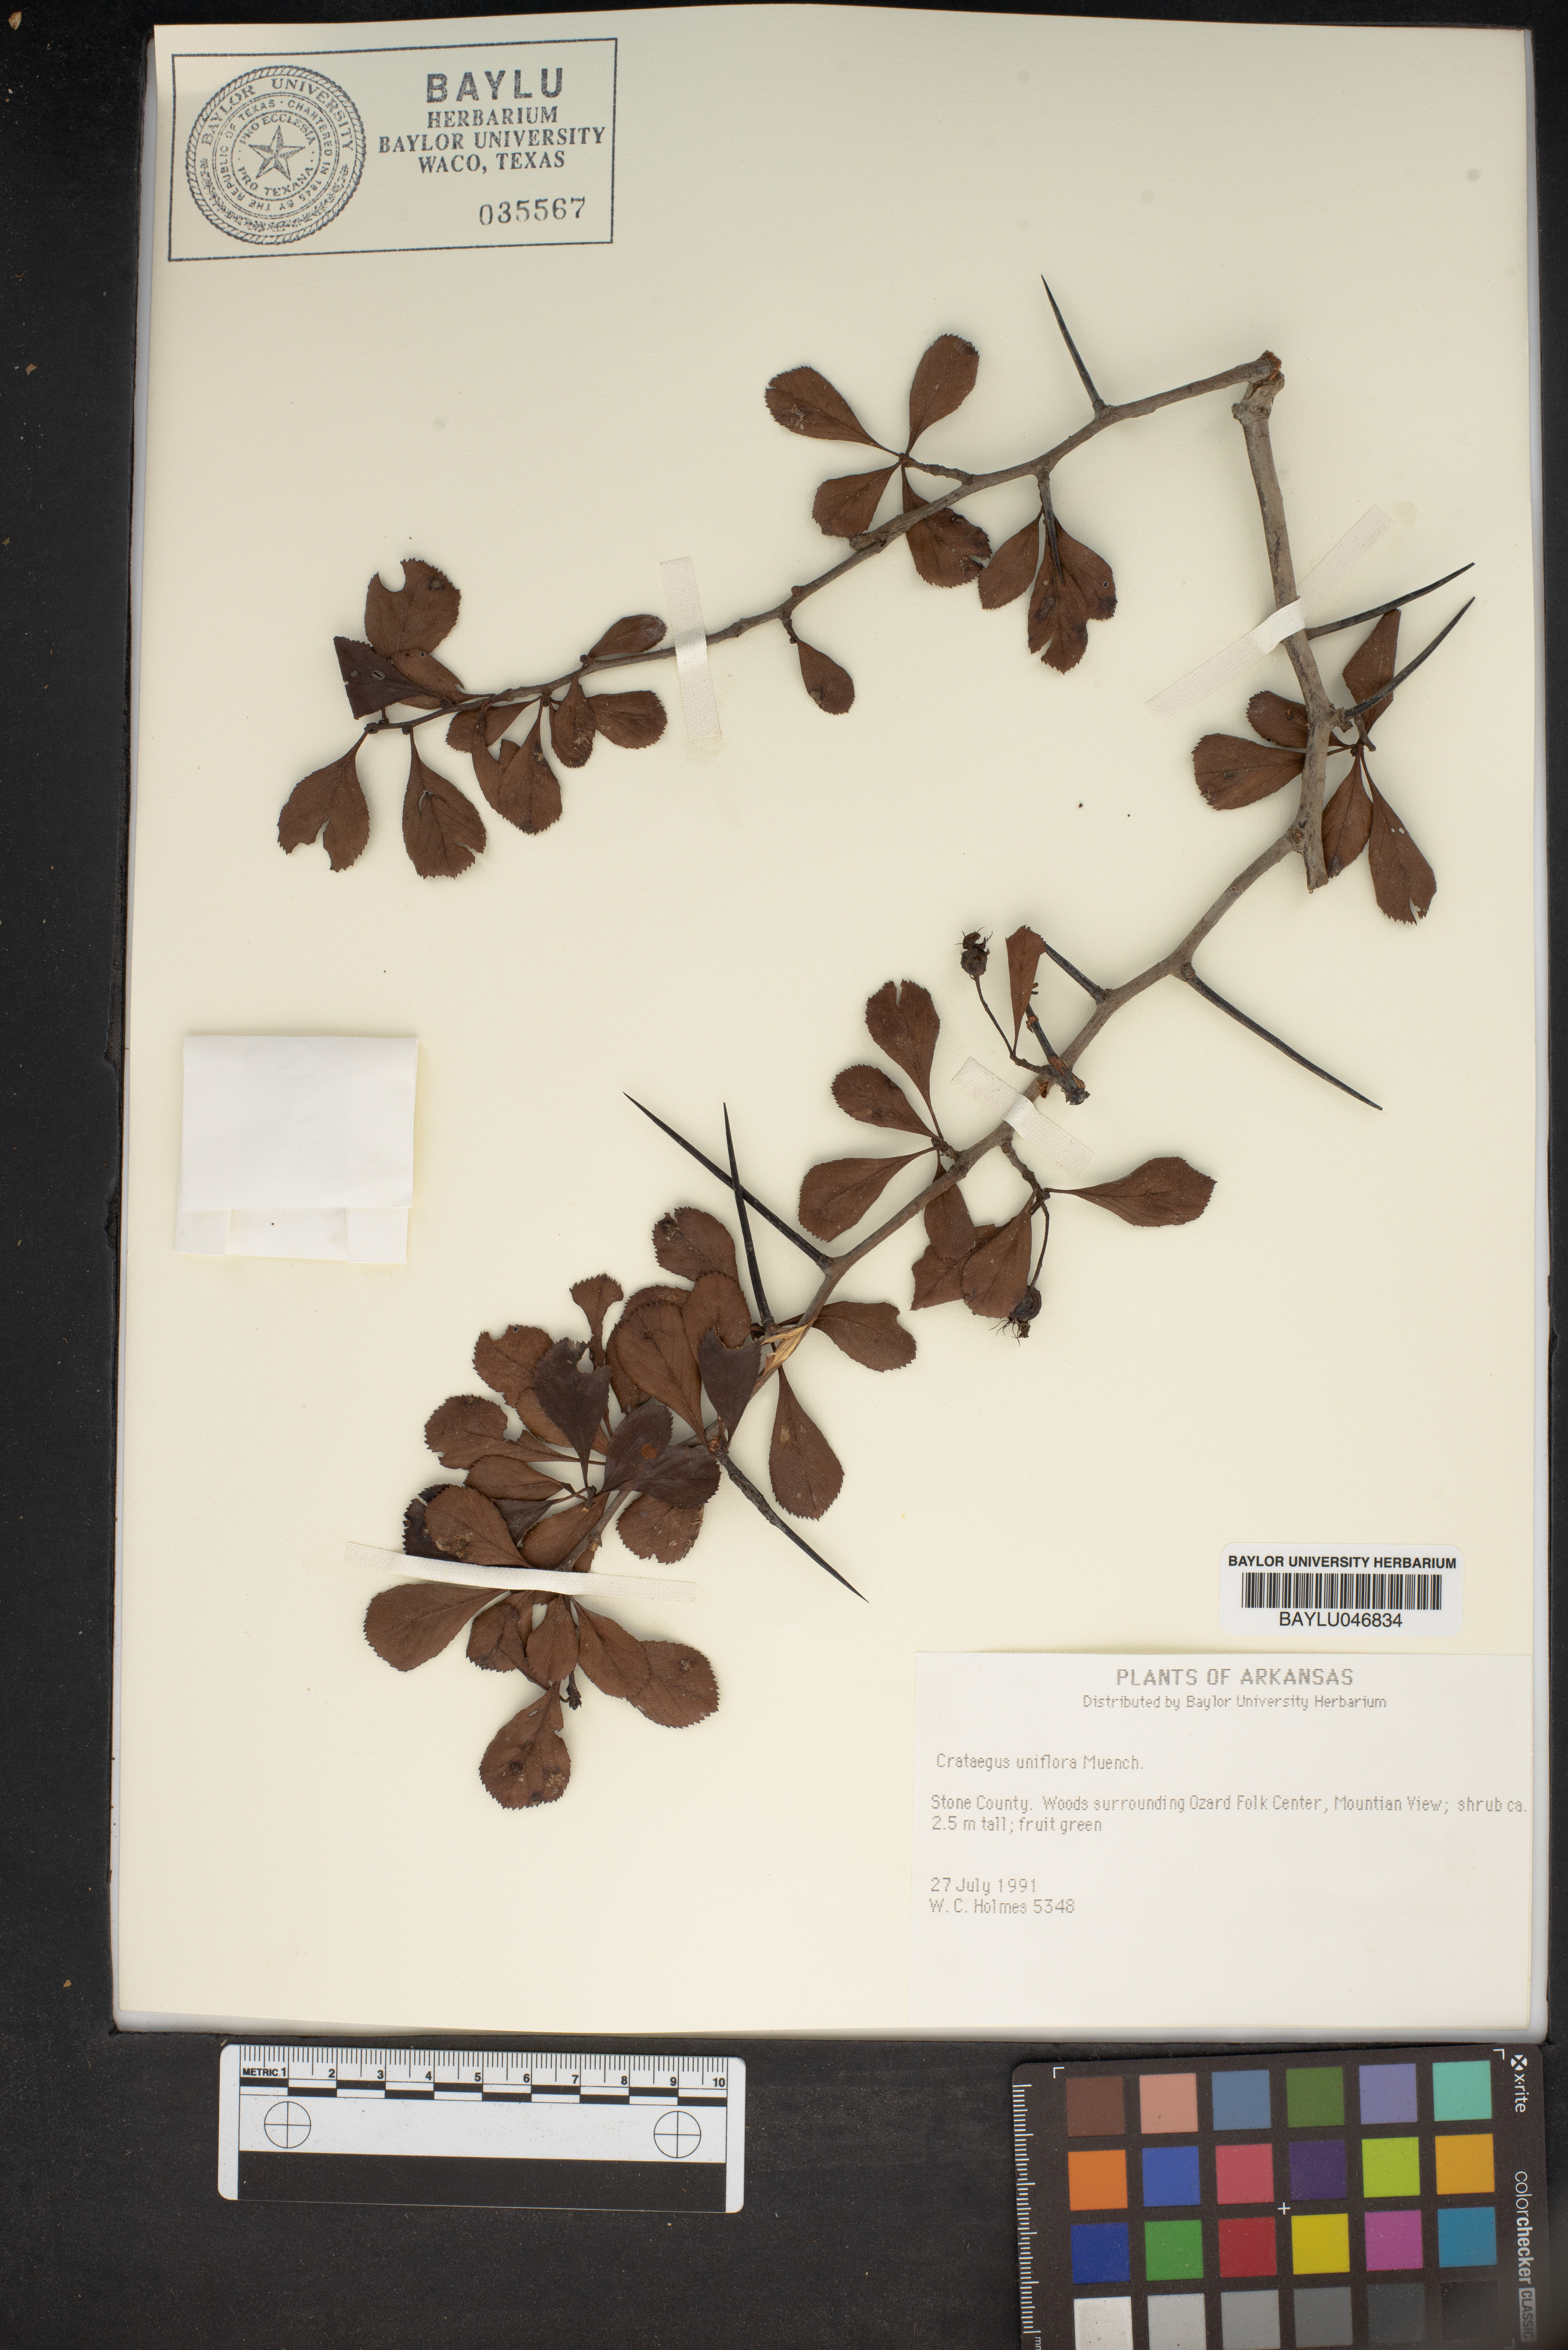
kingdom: Plantae
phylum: Tracheophyta
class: Magnoliopsida
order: Rosales
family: Rosaceae
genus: Crataegus
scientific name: Crataegus uniflora
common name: One-flower hawthorn
